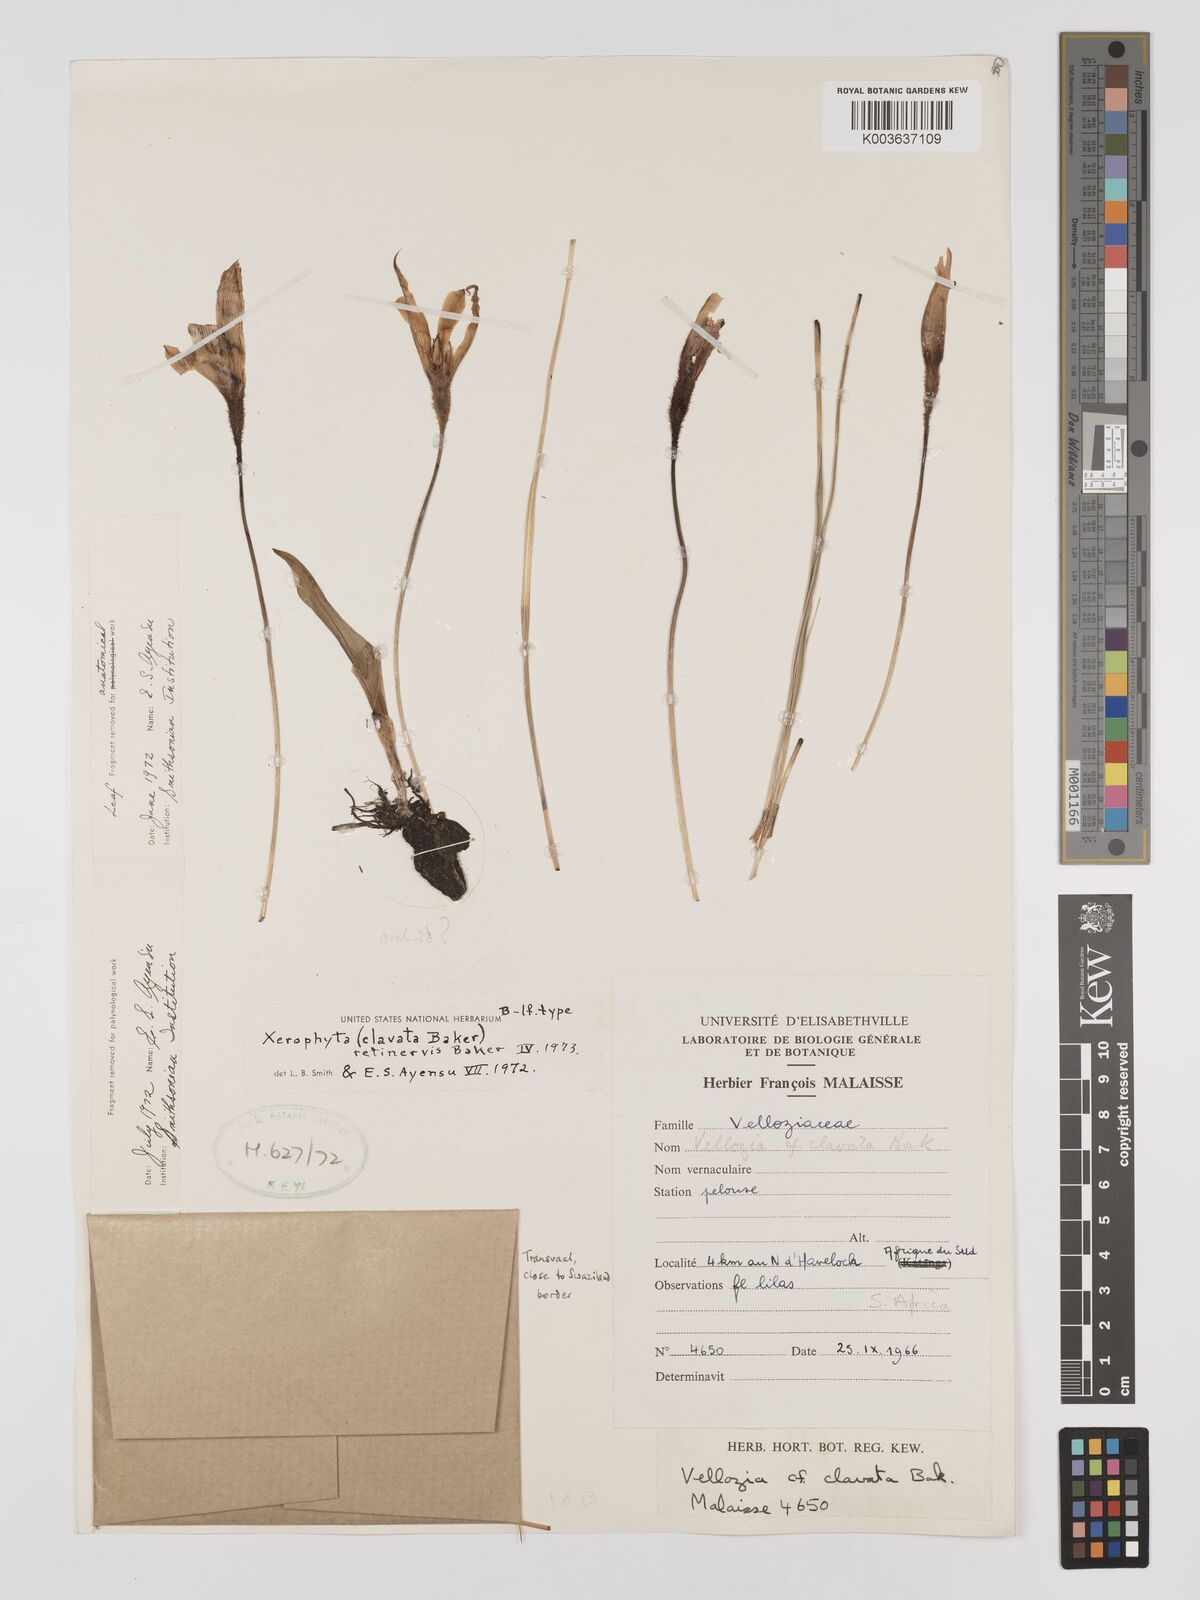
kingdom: Plantae
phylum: Tracheophyta
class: Liliopsida
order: Pandanales
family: Velloziaceae
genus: Xerophyta
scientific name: Xerophyta retinervis
